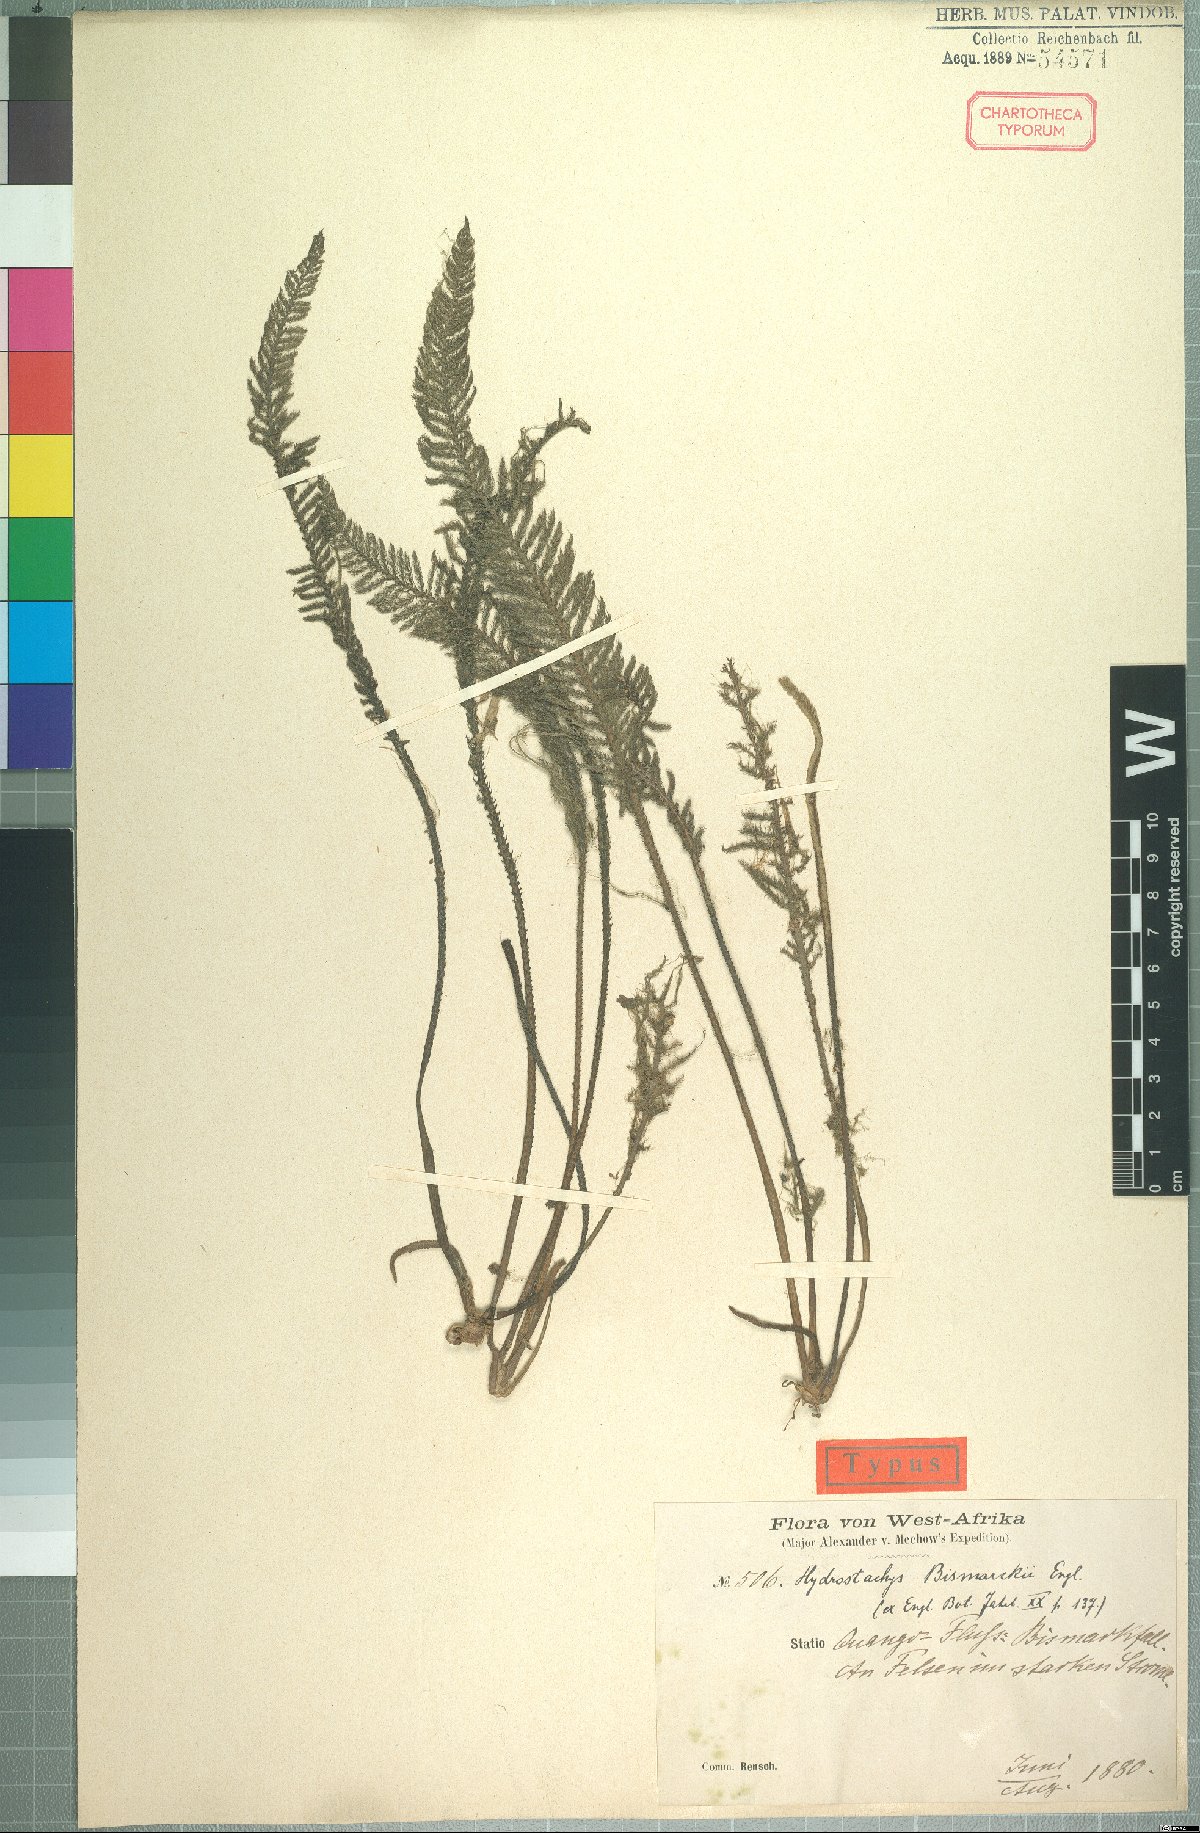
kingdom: Plantae
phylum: Tracheophyta
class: Magnoliopsida
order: Cornales
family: Hydrostachyaceae
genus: Hydrostachys
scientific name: Hydrostachys bismarckii
